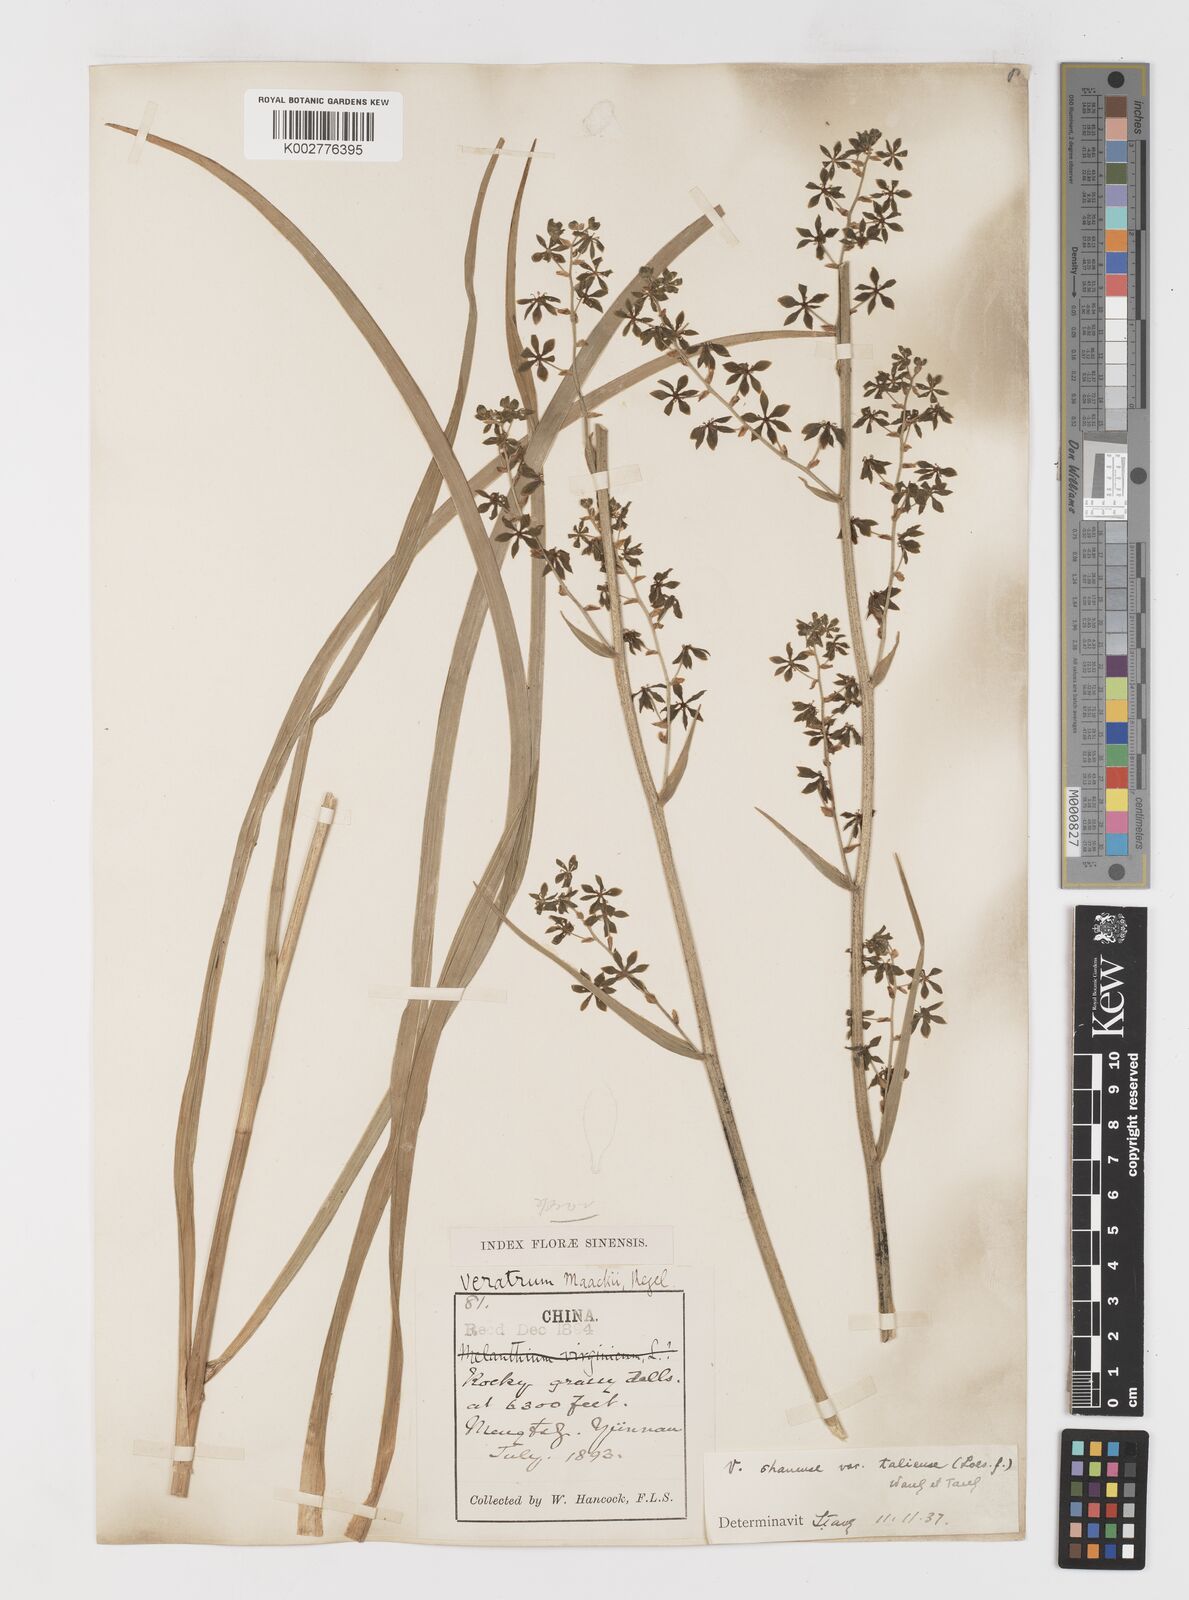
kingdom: Plantae
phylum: Tracheophyta
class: Liliopsida
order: Liliales
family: Melanthiaceae
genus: Veratrum
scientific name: Veratrum taliense
